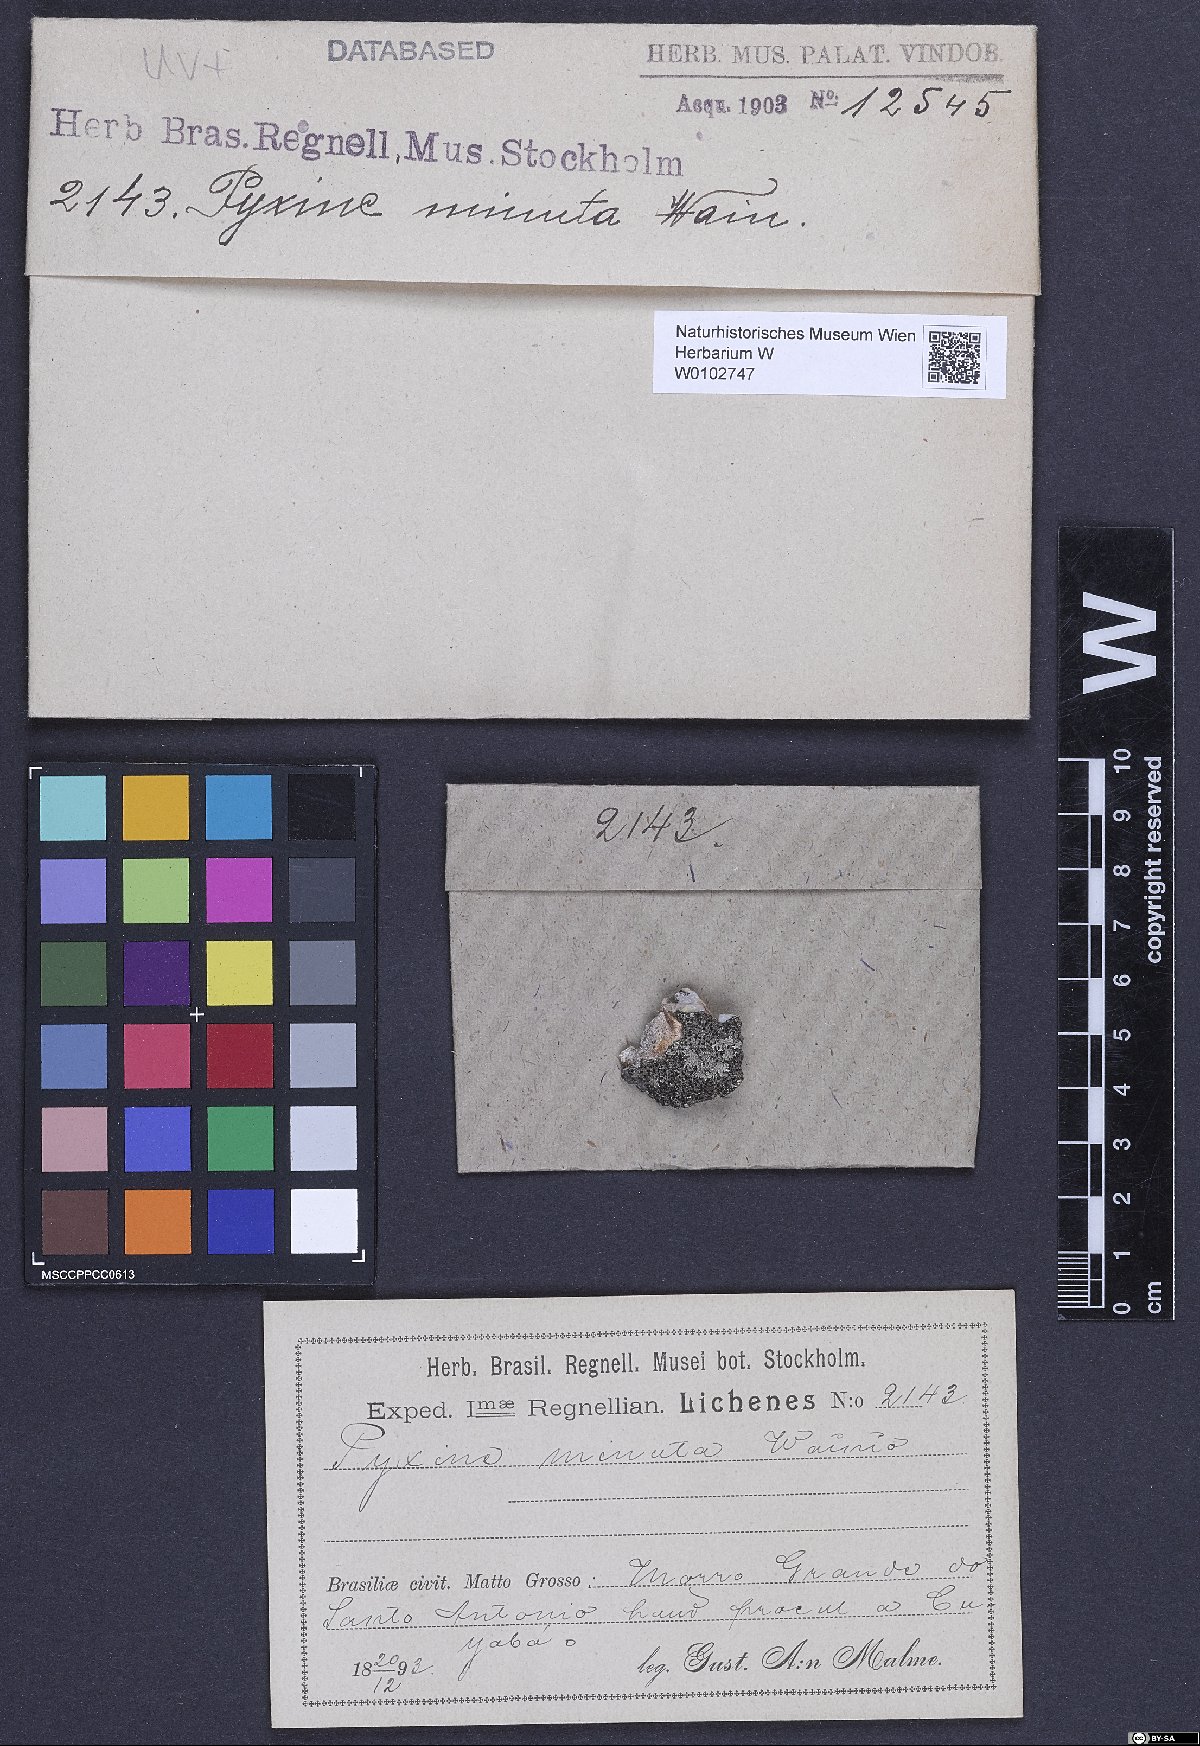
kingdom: Fungi
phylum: Ascomycota
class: Lecanoromycetes
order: Caliciales
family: Caliciaceae
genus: Pyxine
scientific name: Pyxine minuta
